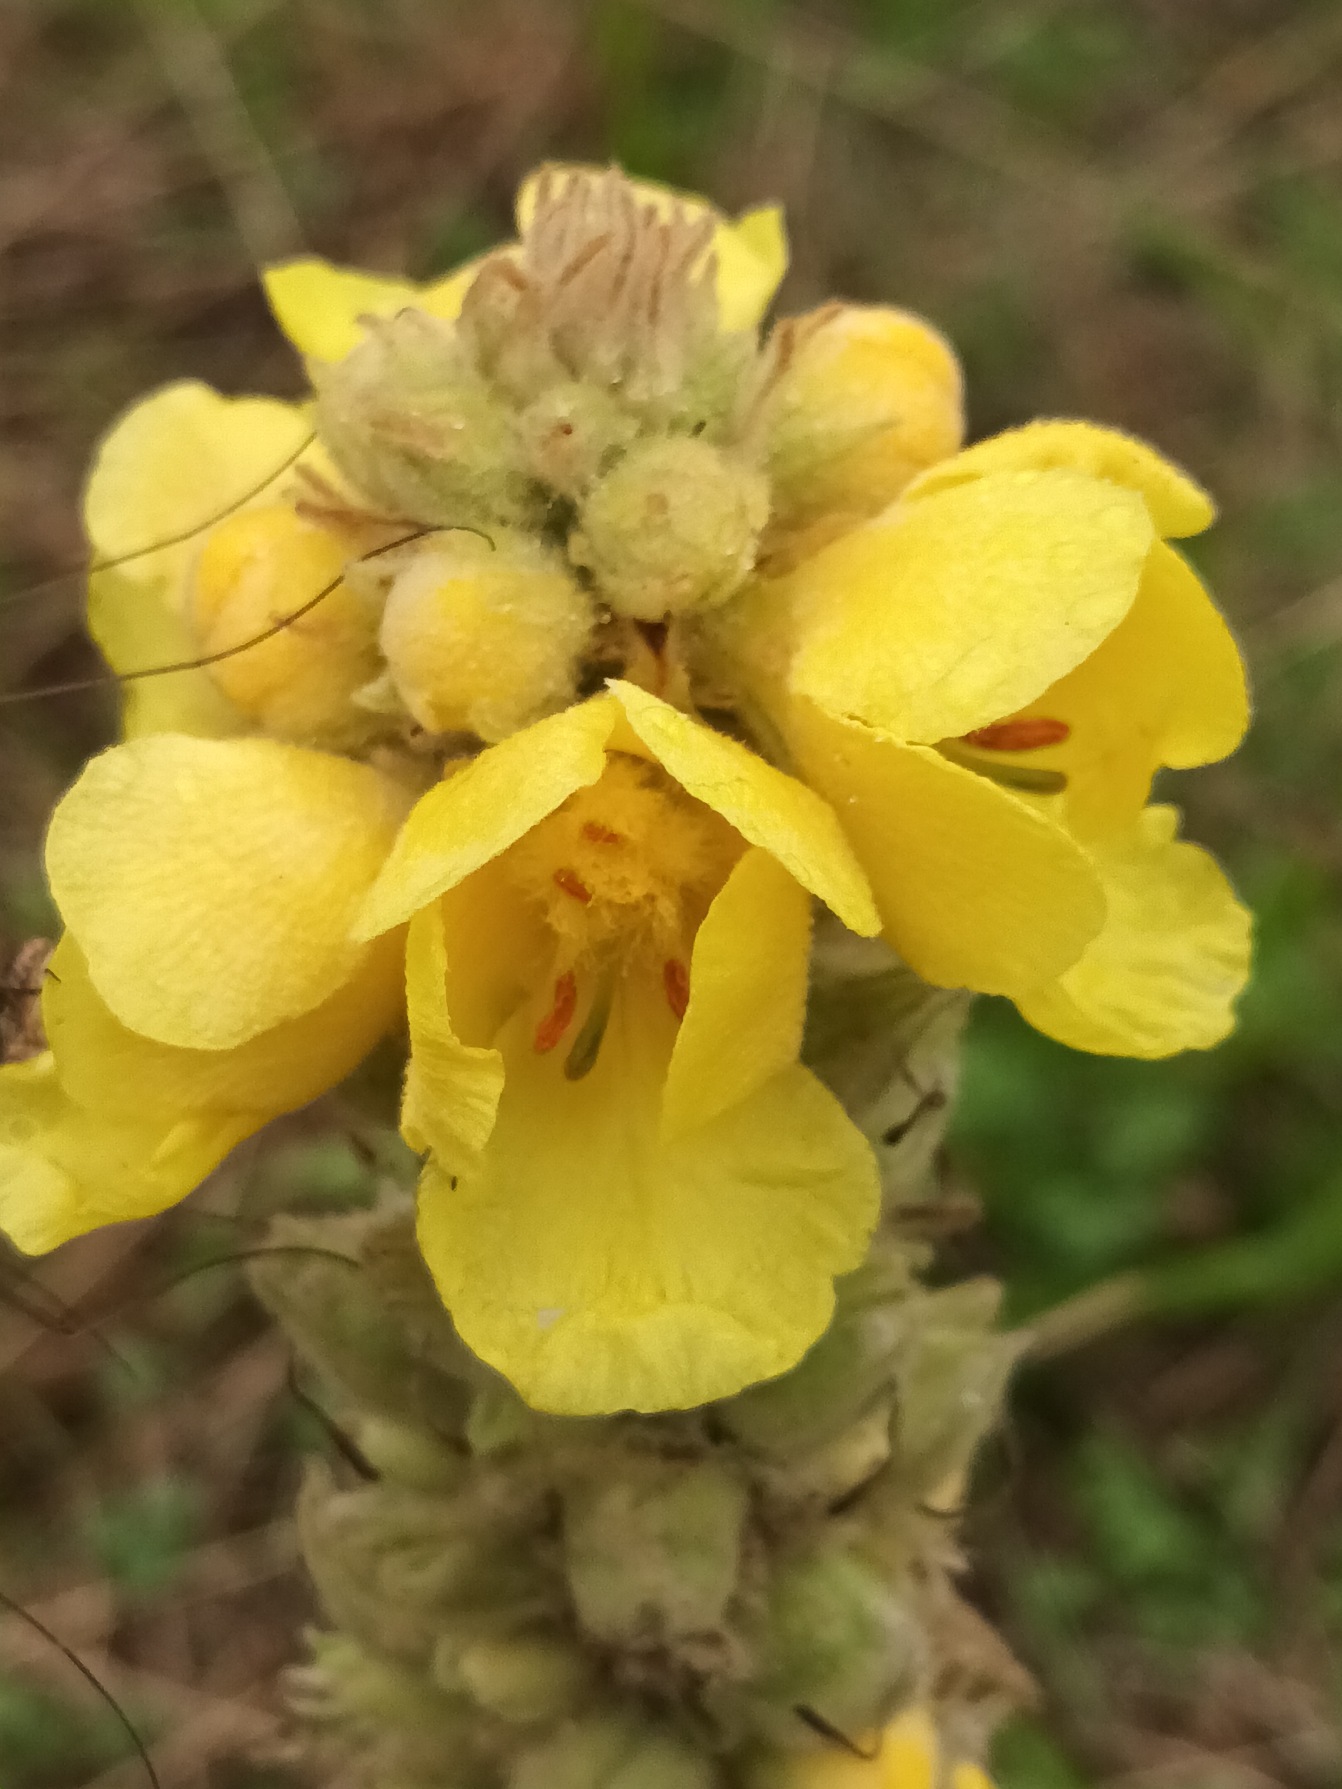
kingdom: Plantae
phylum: Tracheophyta
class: Magnoliopsida
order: Lamiales
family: Scrophulariaceae
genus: Verbascum
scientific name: Verbascum densiflorum
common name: Uldbladet kongelys
